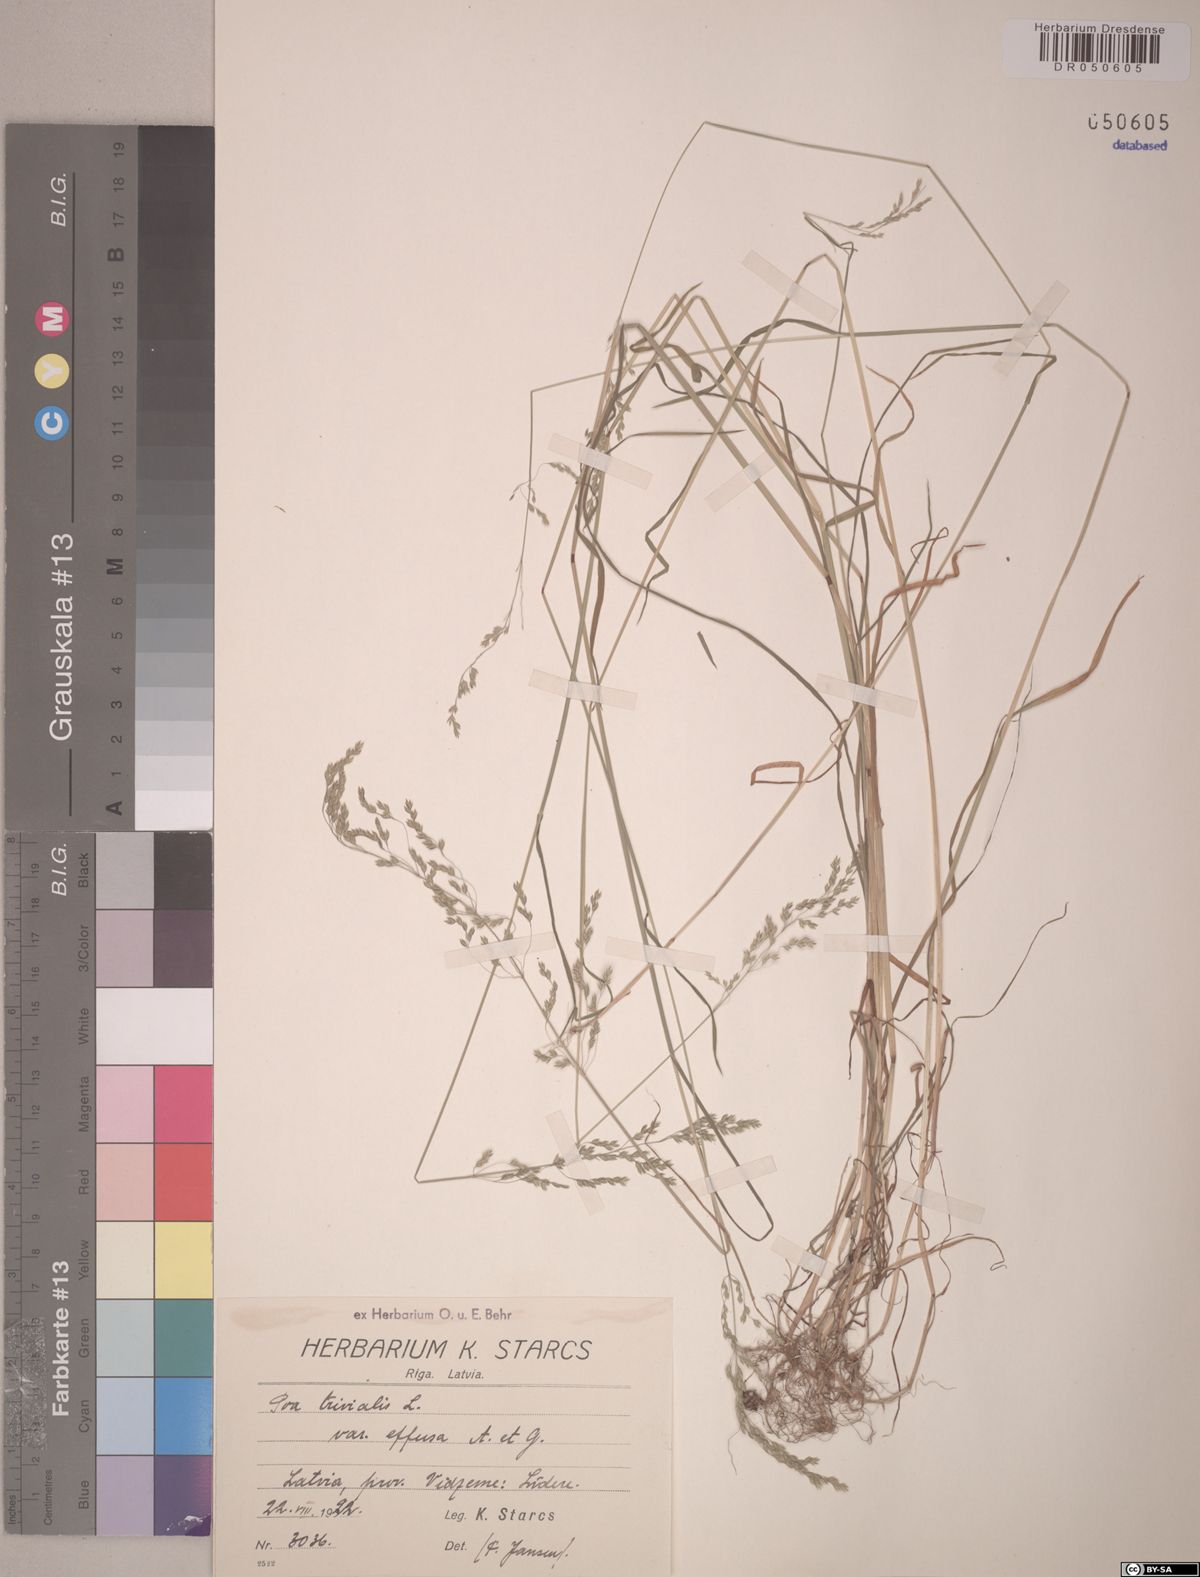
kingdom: Plantae
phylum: Tracheophyta
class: Liliopsida
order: Poales
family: Poaceae
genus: Poa
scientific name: Poa trivialis
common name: Rough bluegrass
